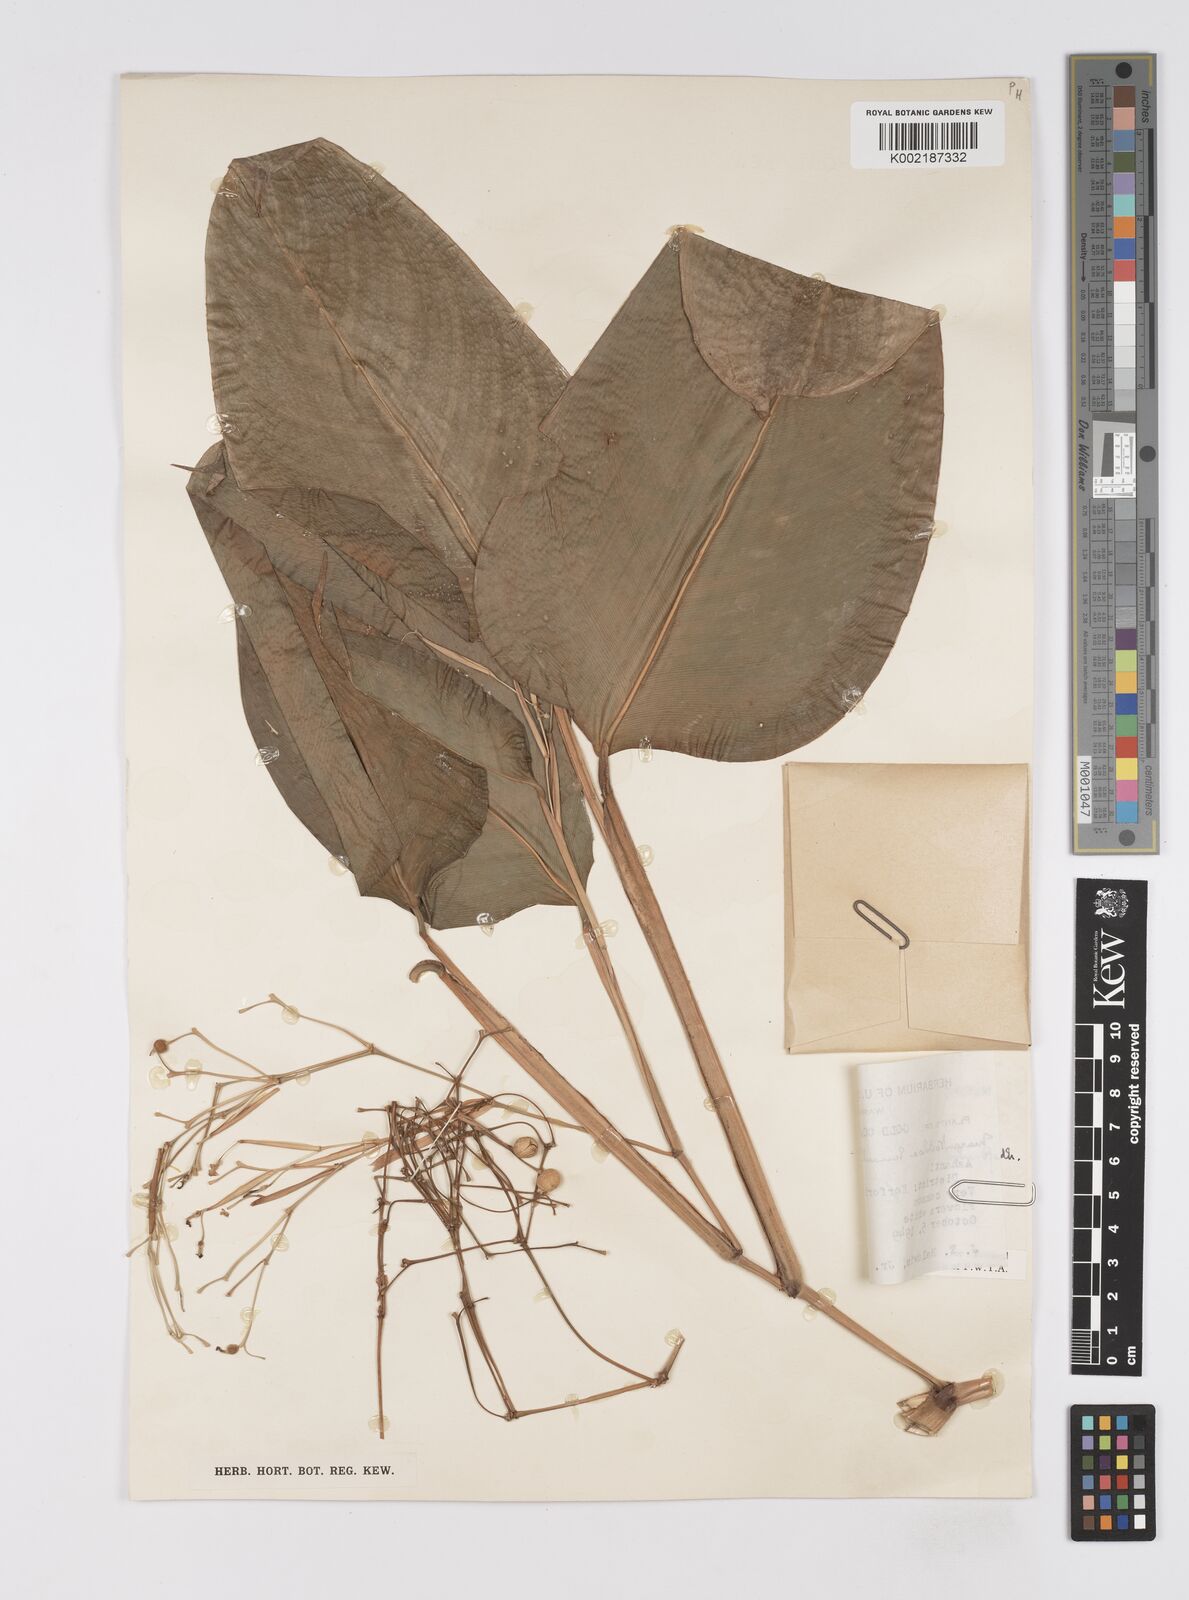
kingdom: Plantae
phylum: Tracheophyta
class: Liliopsida
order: Zingiberales
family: Marantaceae
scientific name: Marantaceae
